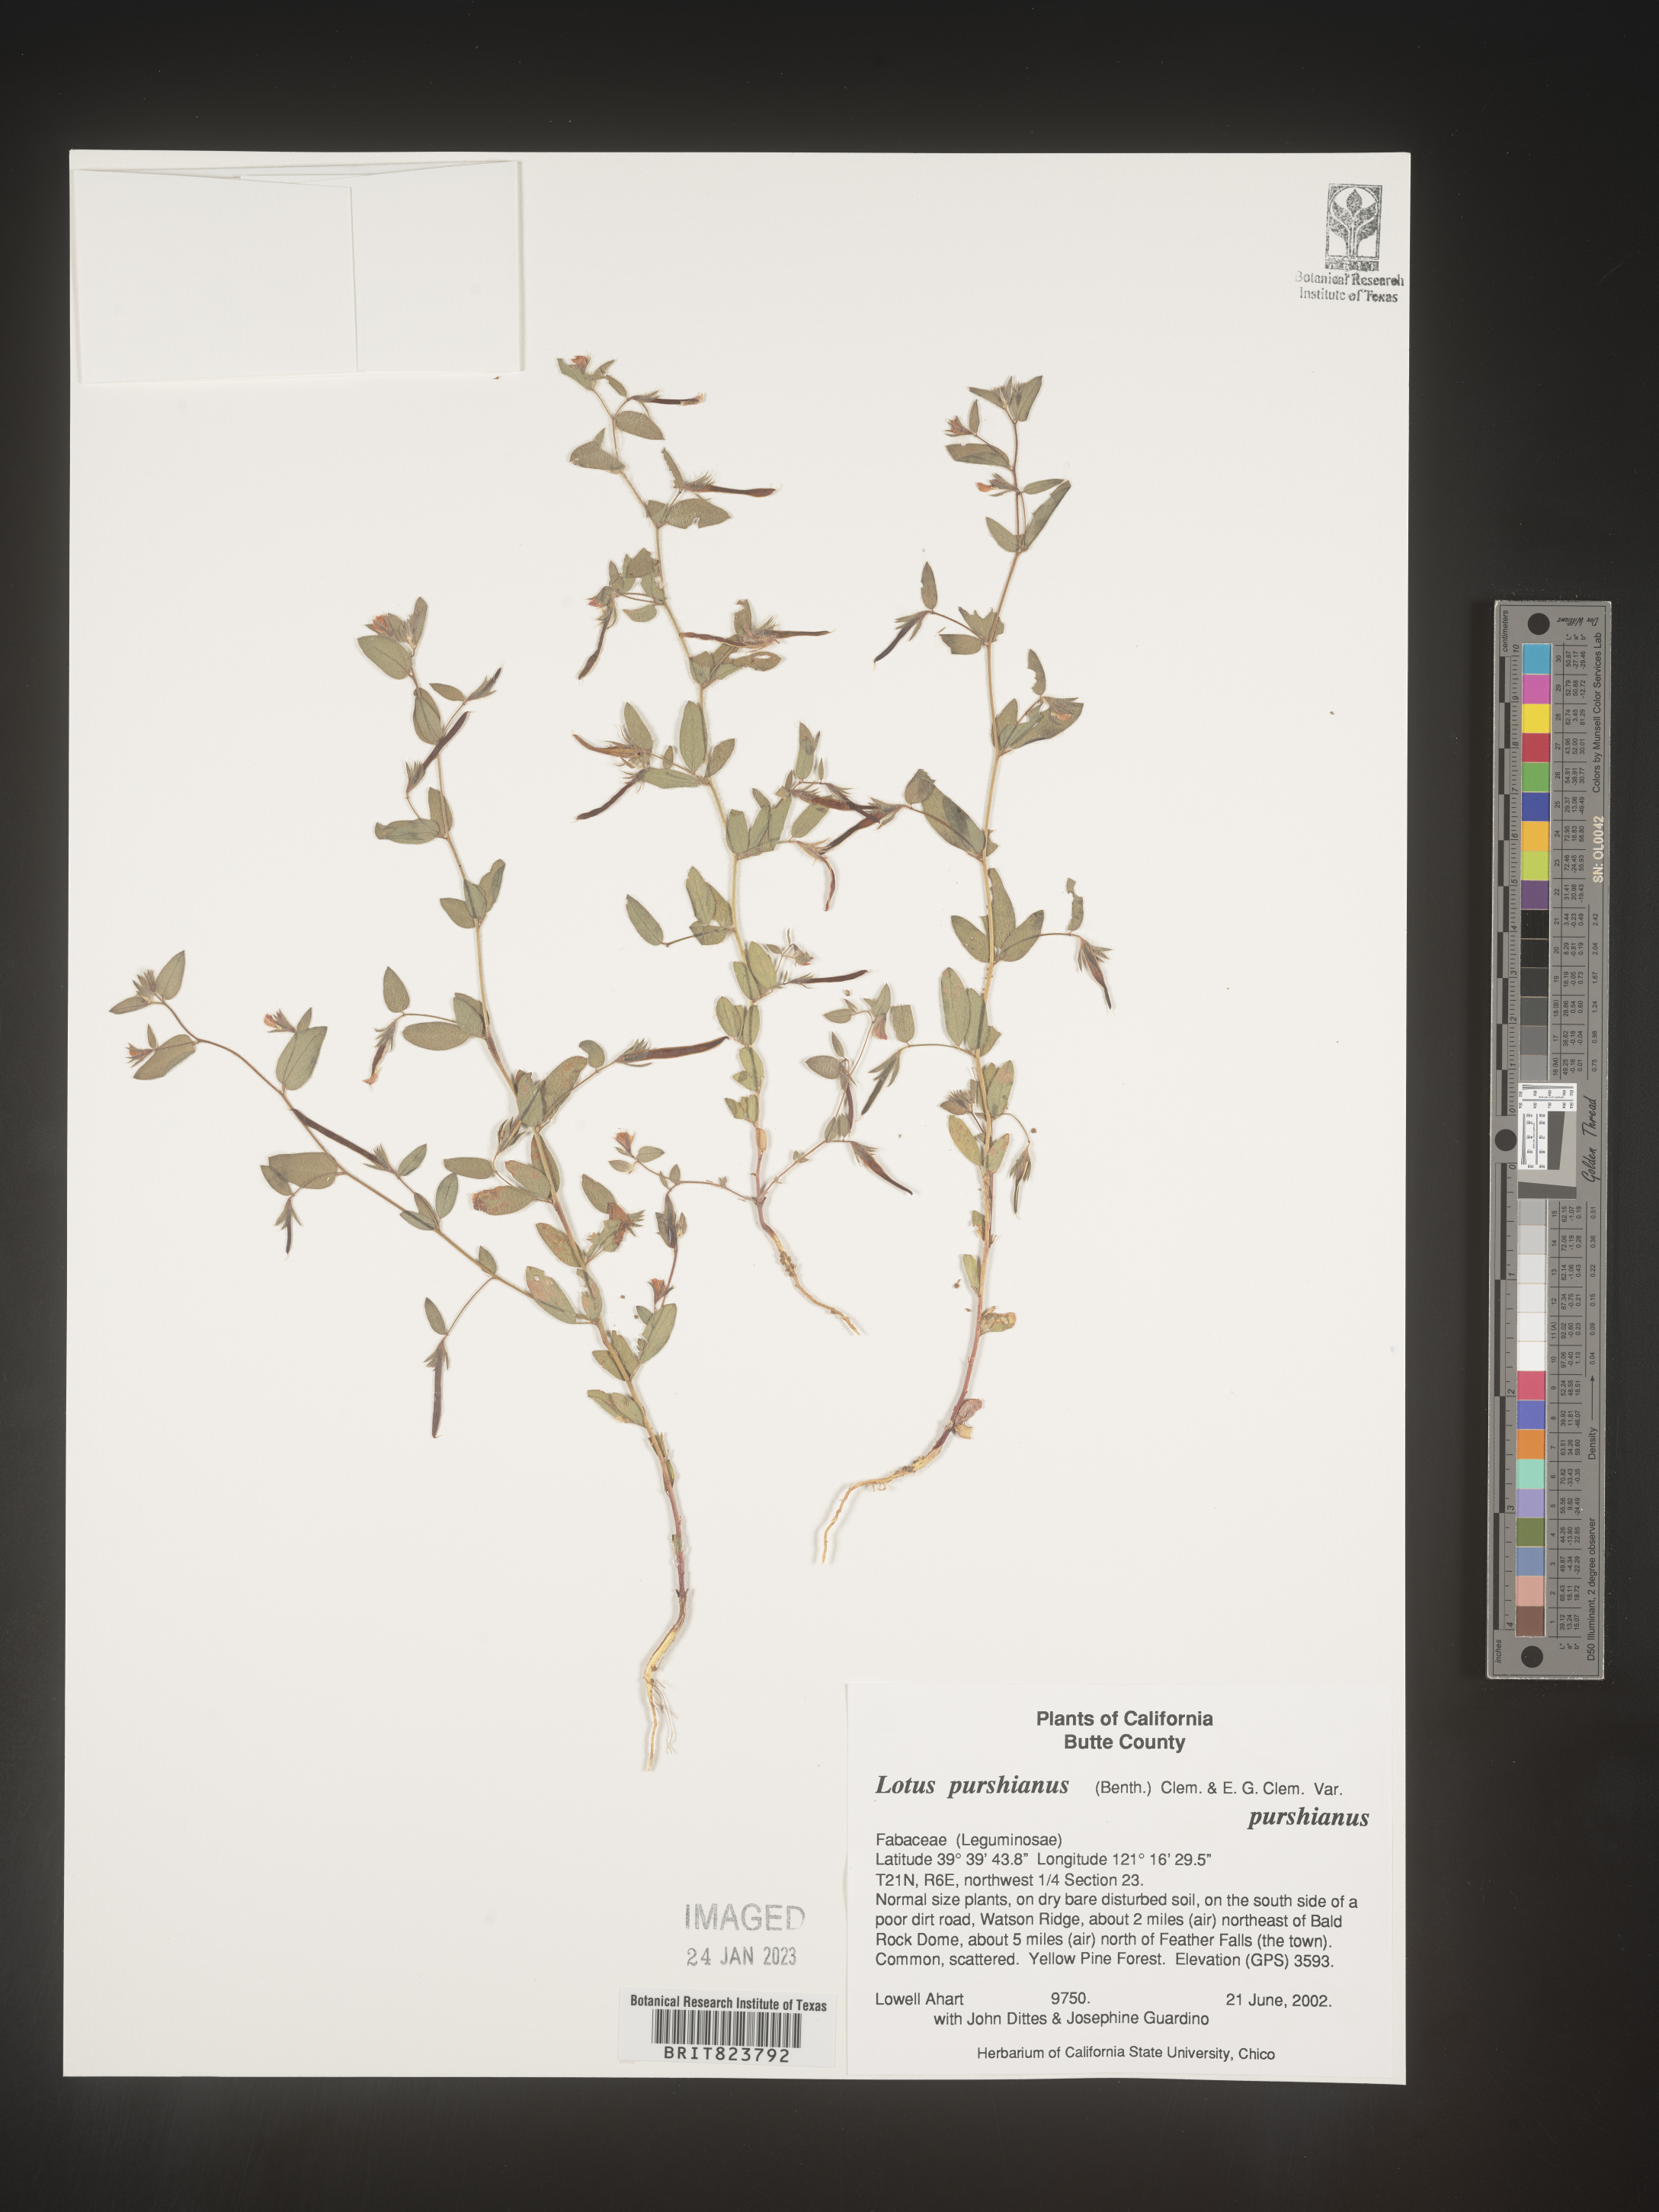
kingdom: Plantae
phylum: Tracheophyta
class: Magnoliopsida
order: Fabales
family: Fabaceae
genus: Acmispon
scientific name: Acmispon americanus
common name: American bird's-foot trefoil
